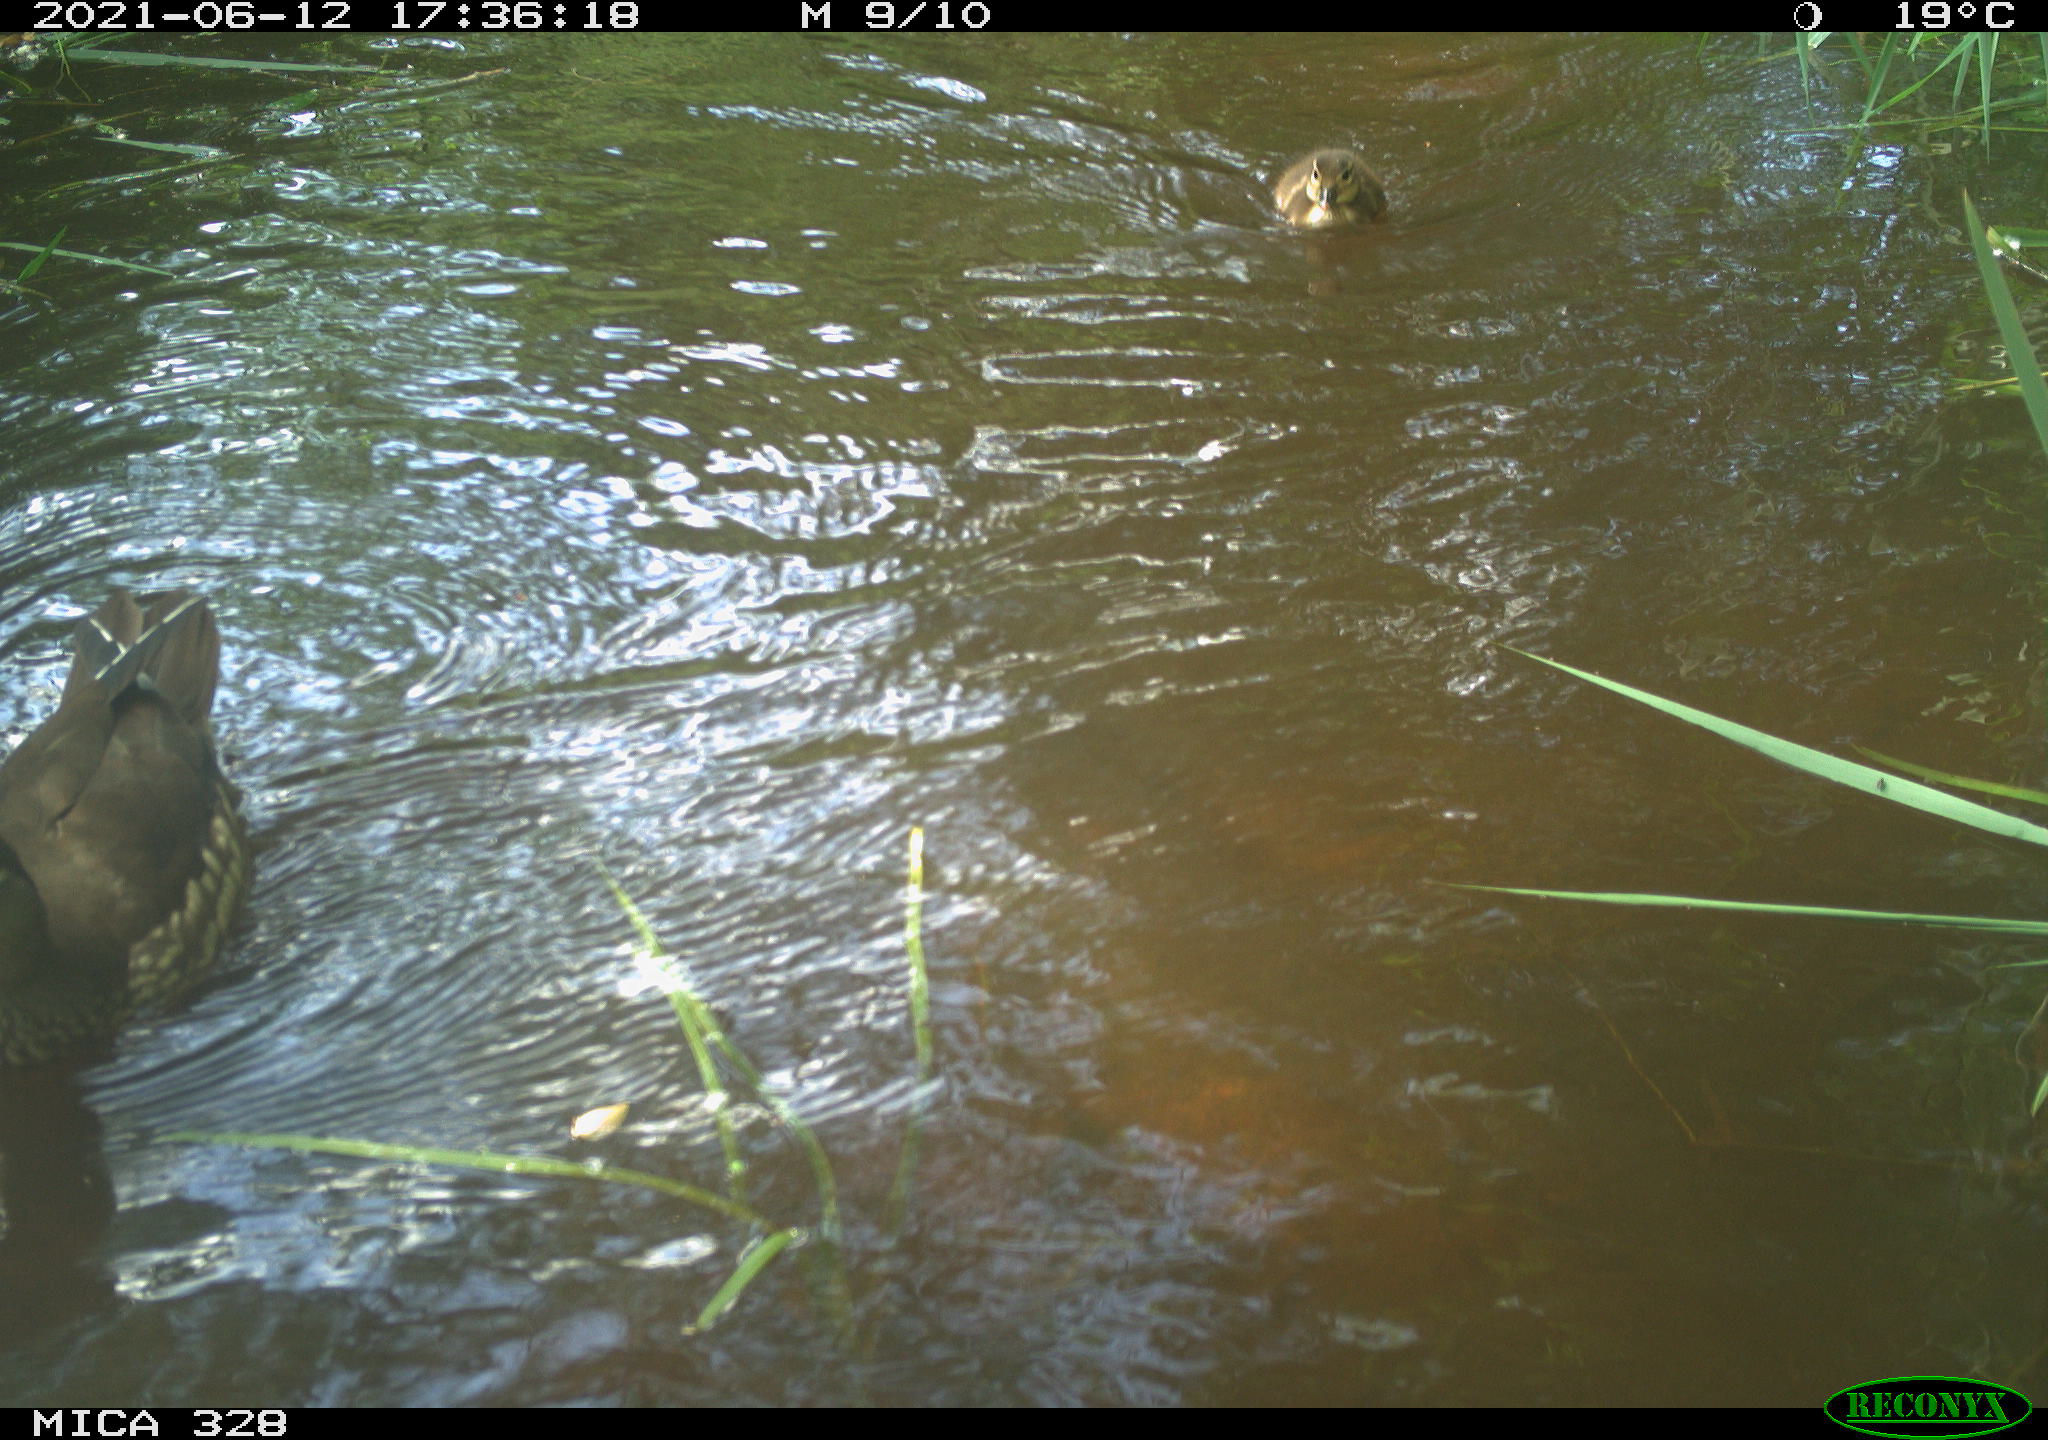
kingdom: Animalia
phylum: Chordata
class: Aves
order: Anseriformes
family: Anatidae
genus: Aix
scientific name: Aix galericulata
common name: Mandarin duck
